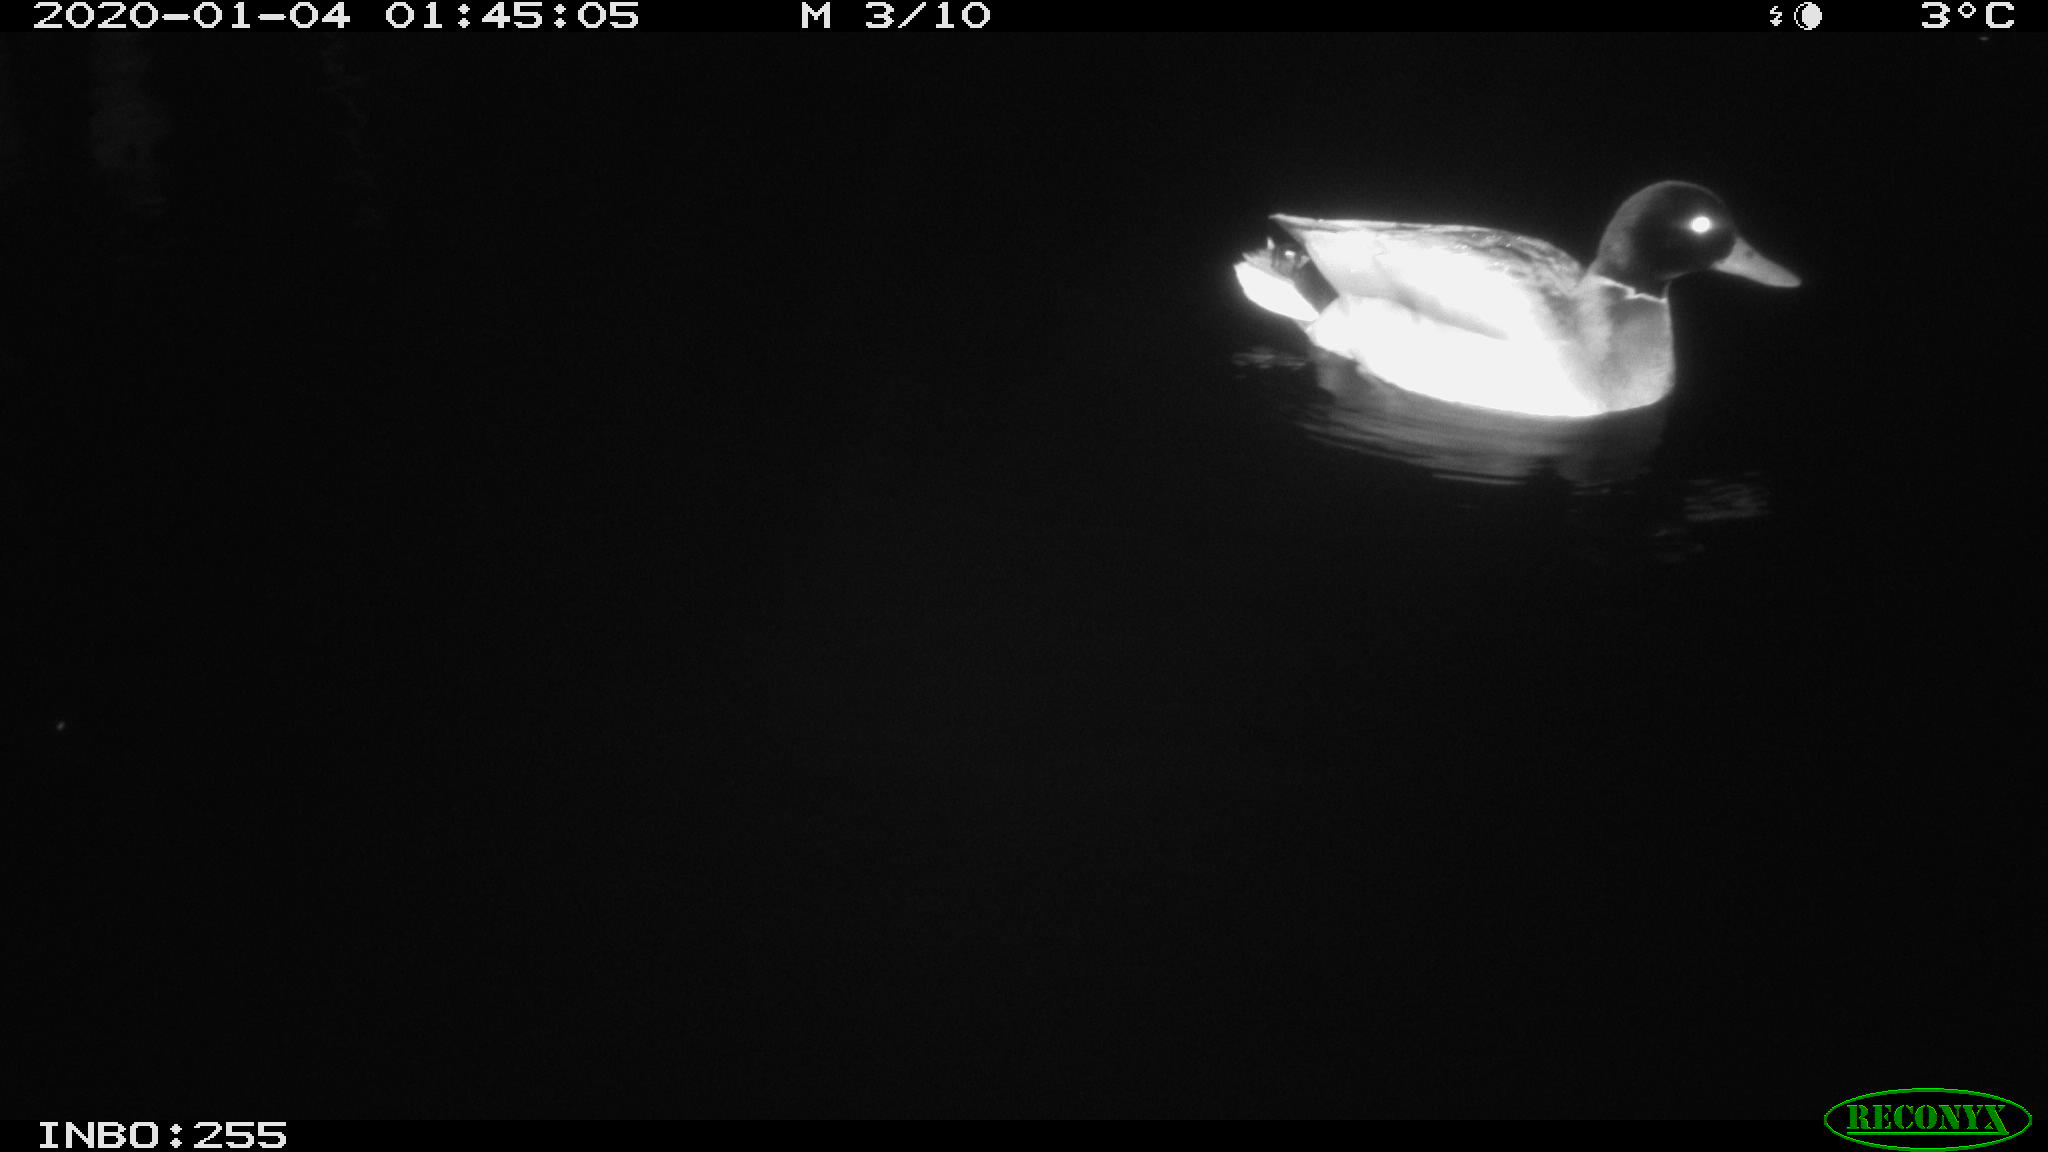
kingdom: Animalia
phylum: Chordata
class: Aves
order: Anseriformes
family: Anatidae
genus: Anas
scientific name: Anas platyrhynchos
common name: Mallard
